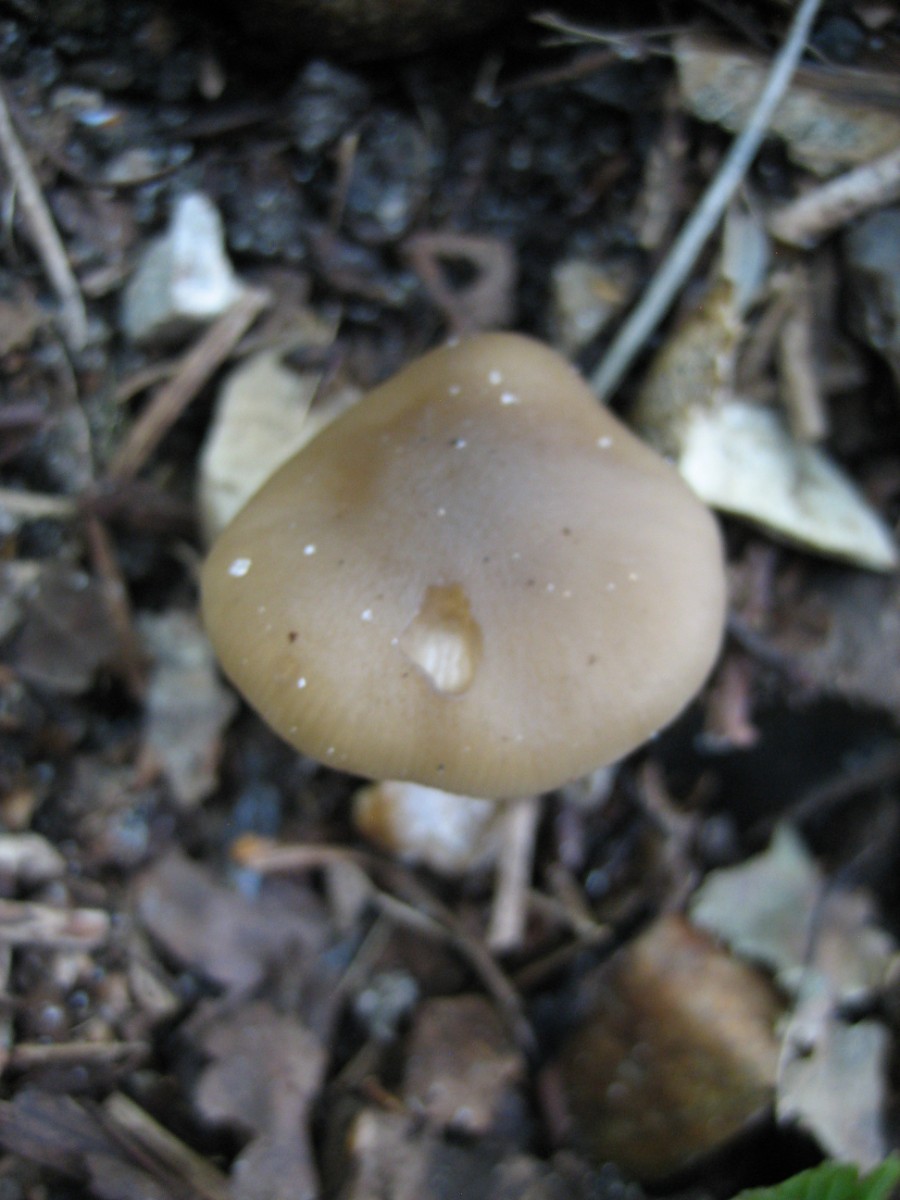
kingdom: Fungi
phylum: Basidiomycota
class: Agaricomycetes
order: Agaricales
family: Lyophyllaceae
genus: Lyophyllum
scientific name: Lyophyllum
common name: gråblad
